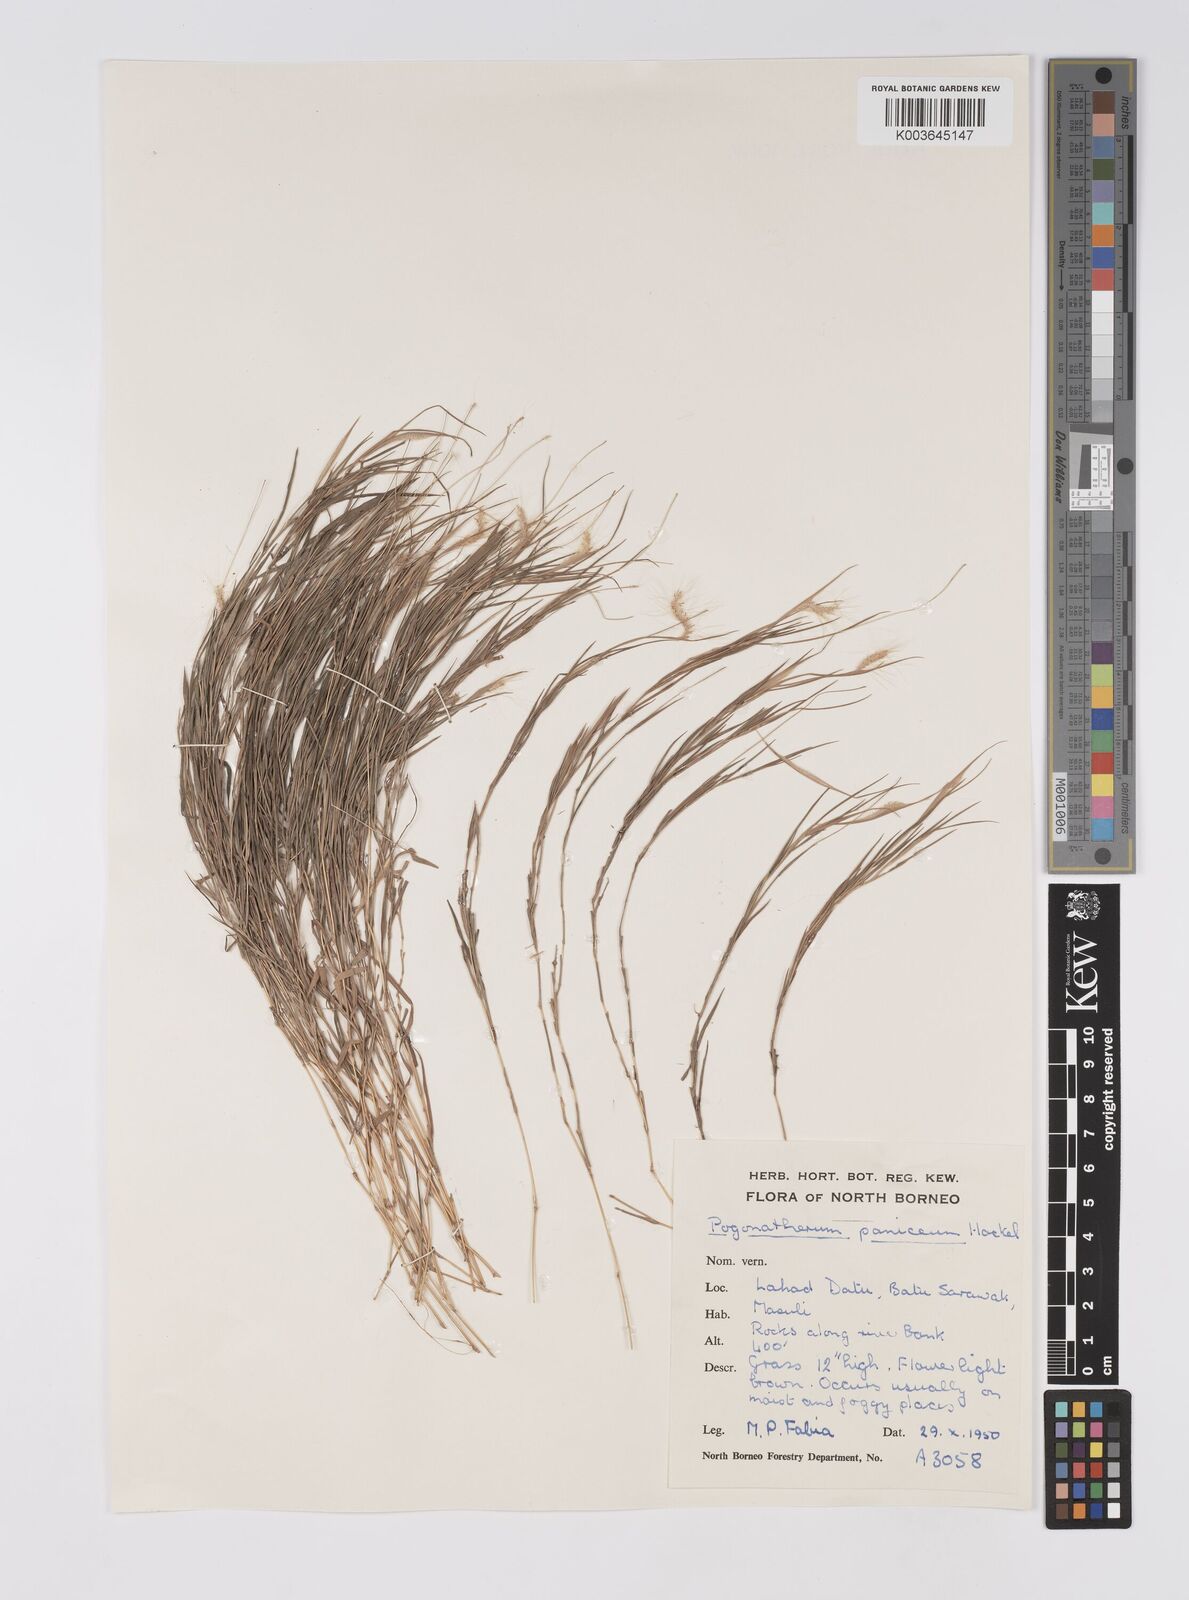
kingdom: Plantae
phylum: Tracheophyta
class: Liliopsida
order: Poales
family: Poaceae
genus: Pogonatherum
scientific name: Pogonatherum crinitum
